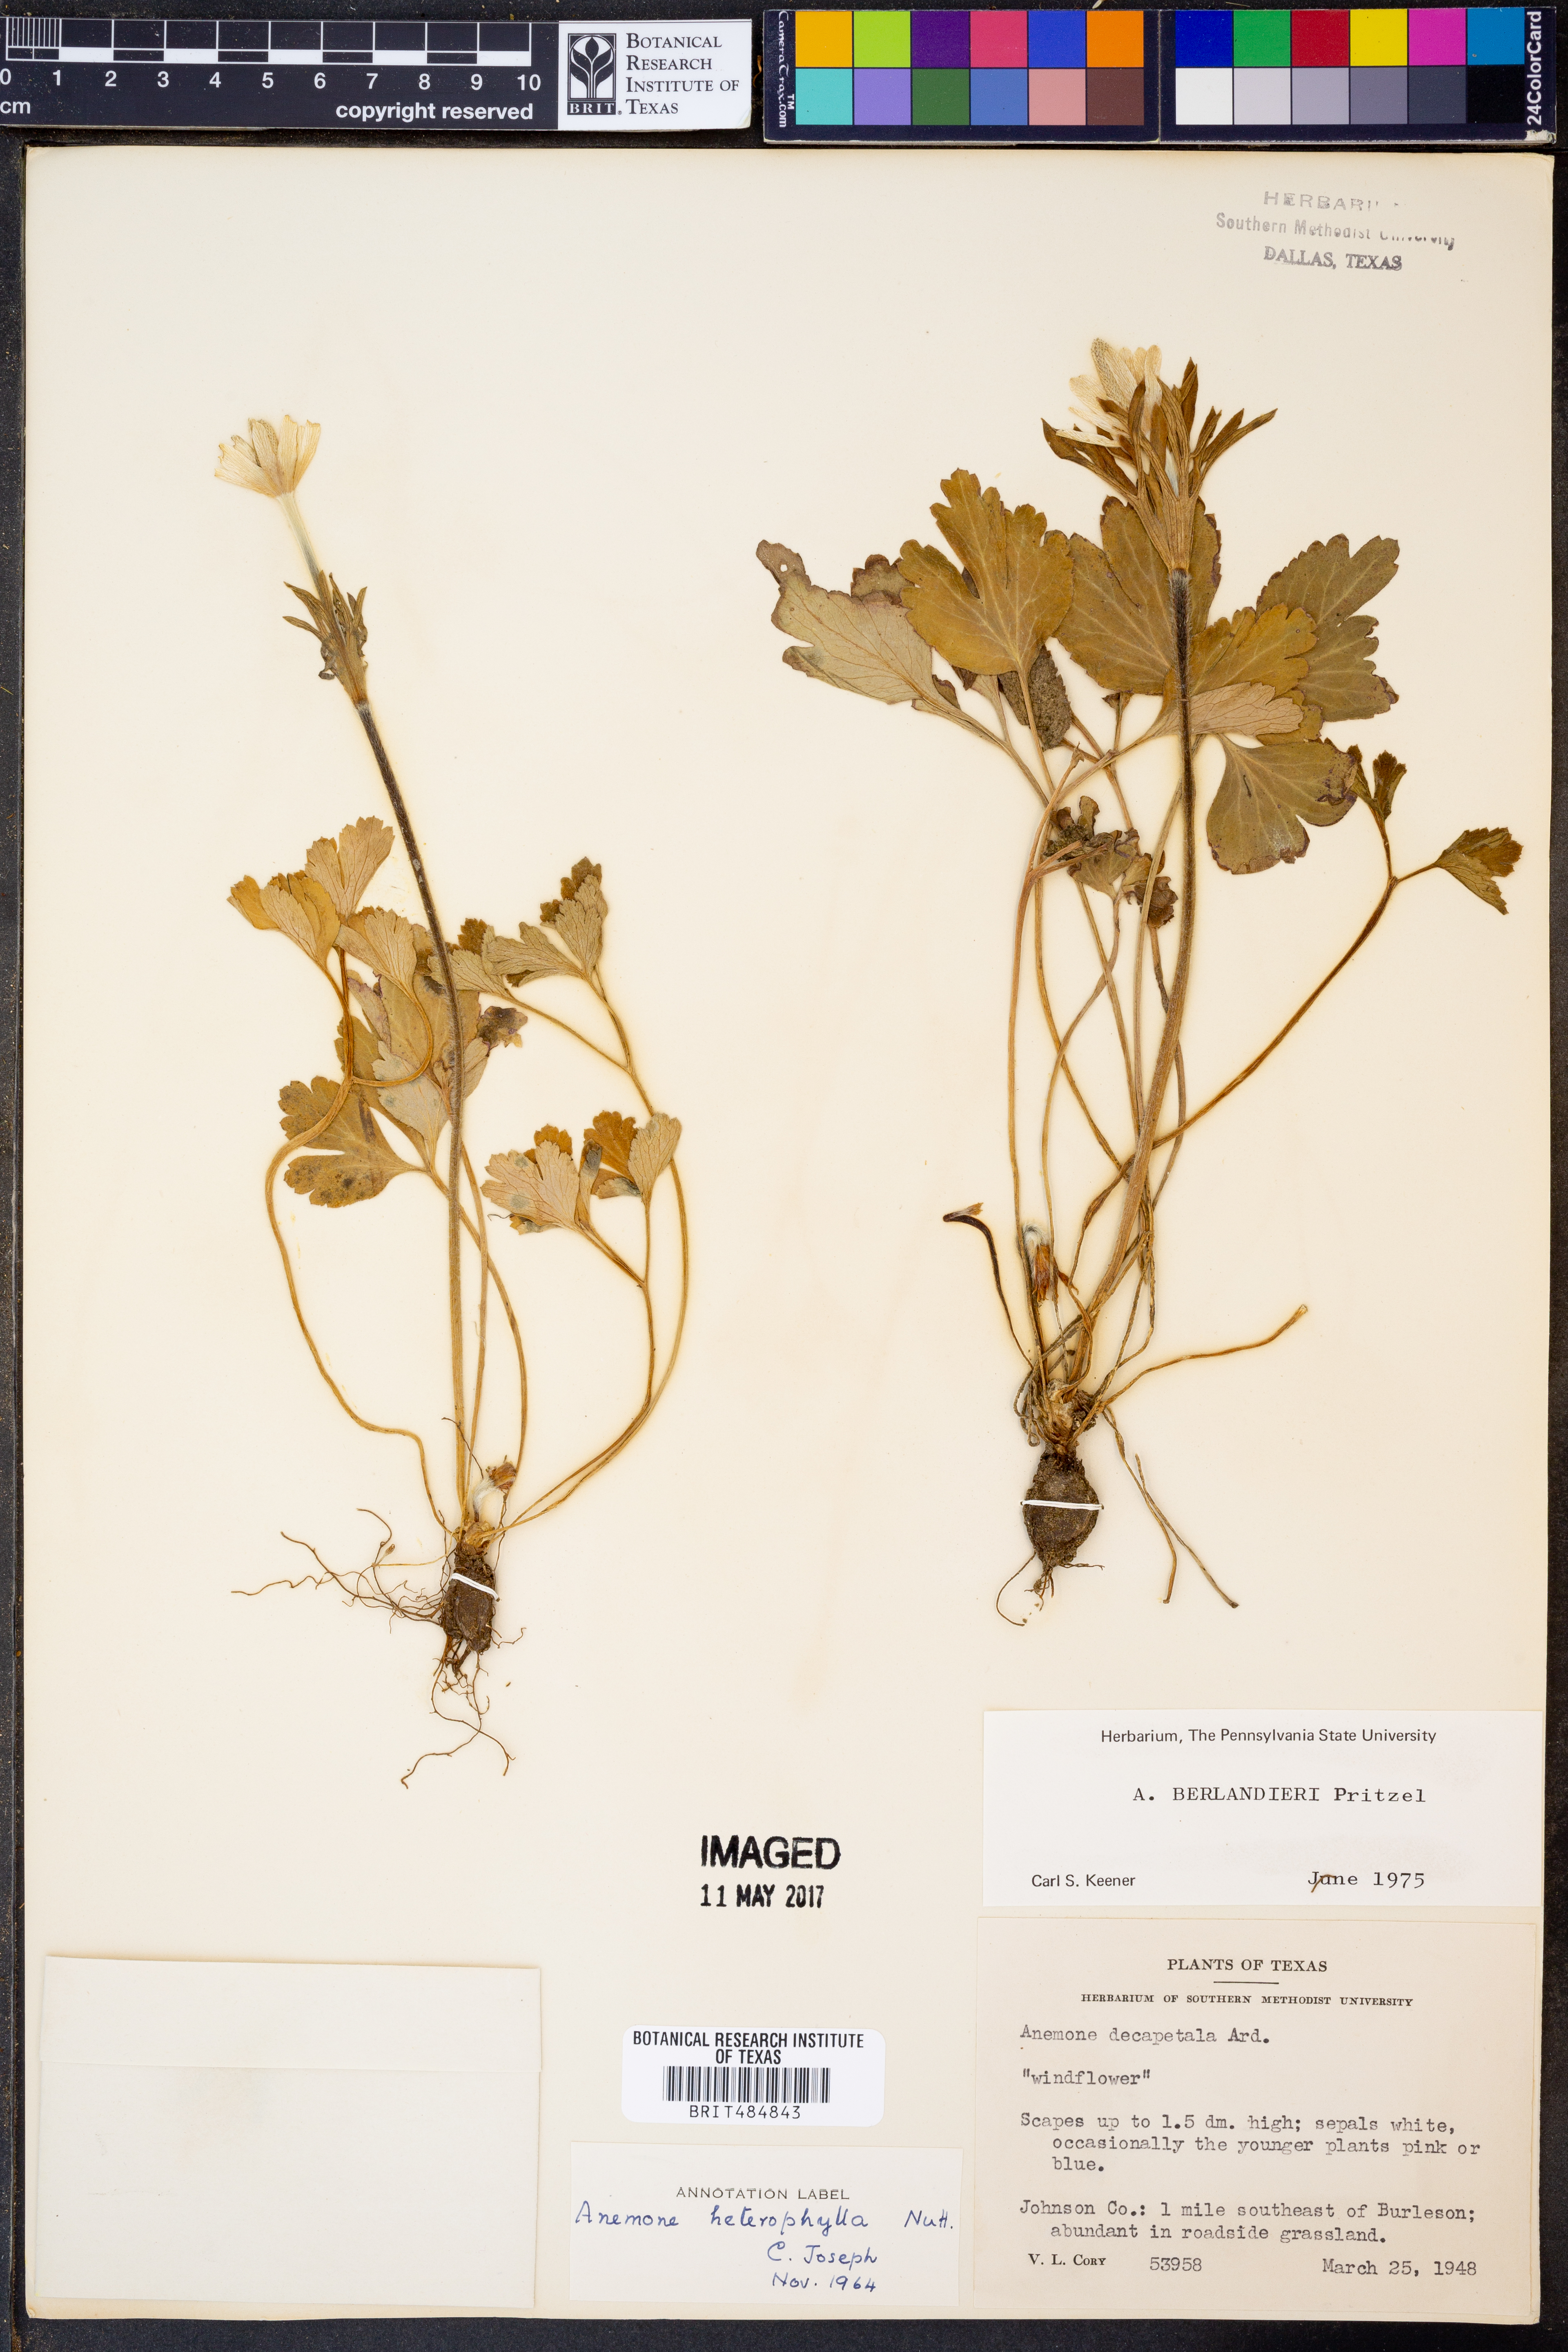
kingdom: Plantae
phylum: Tracheophyta
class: Magnoliopsida
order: Ranunculales
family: Ranunculaceae
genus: Anemone
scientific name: Anemone berlandieri
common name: Ten-petal anemone
